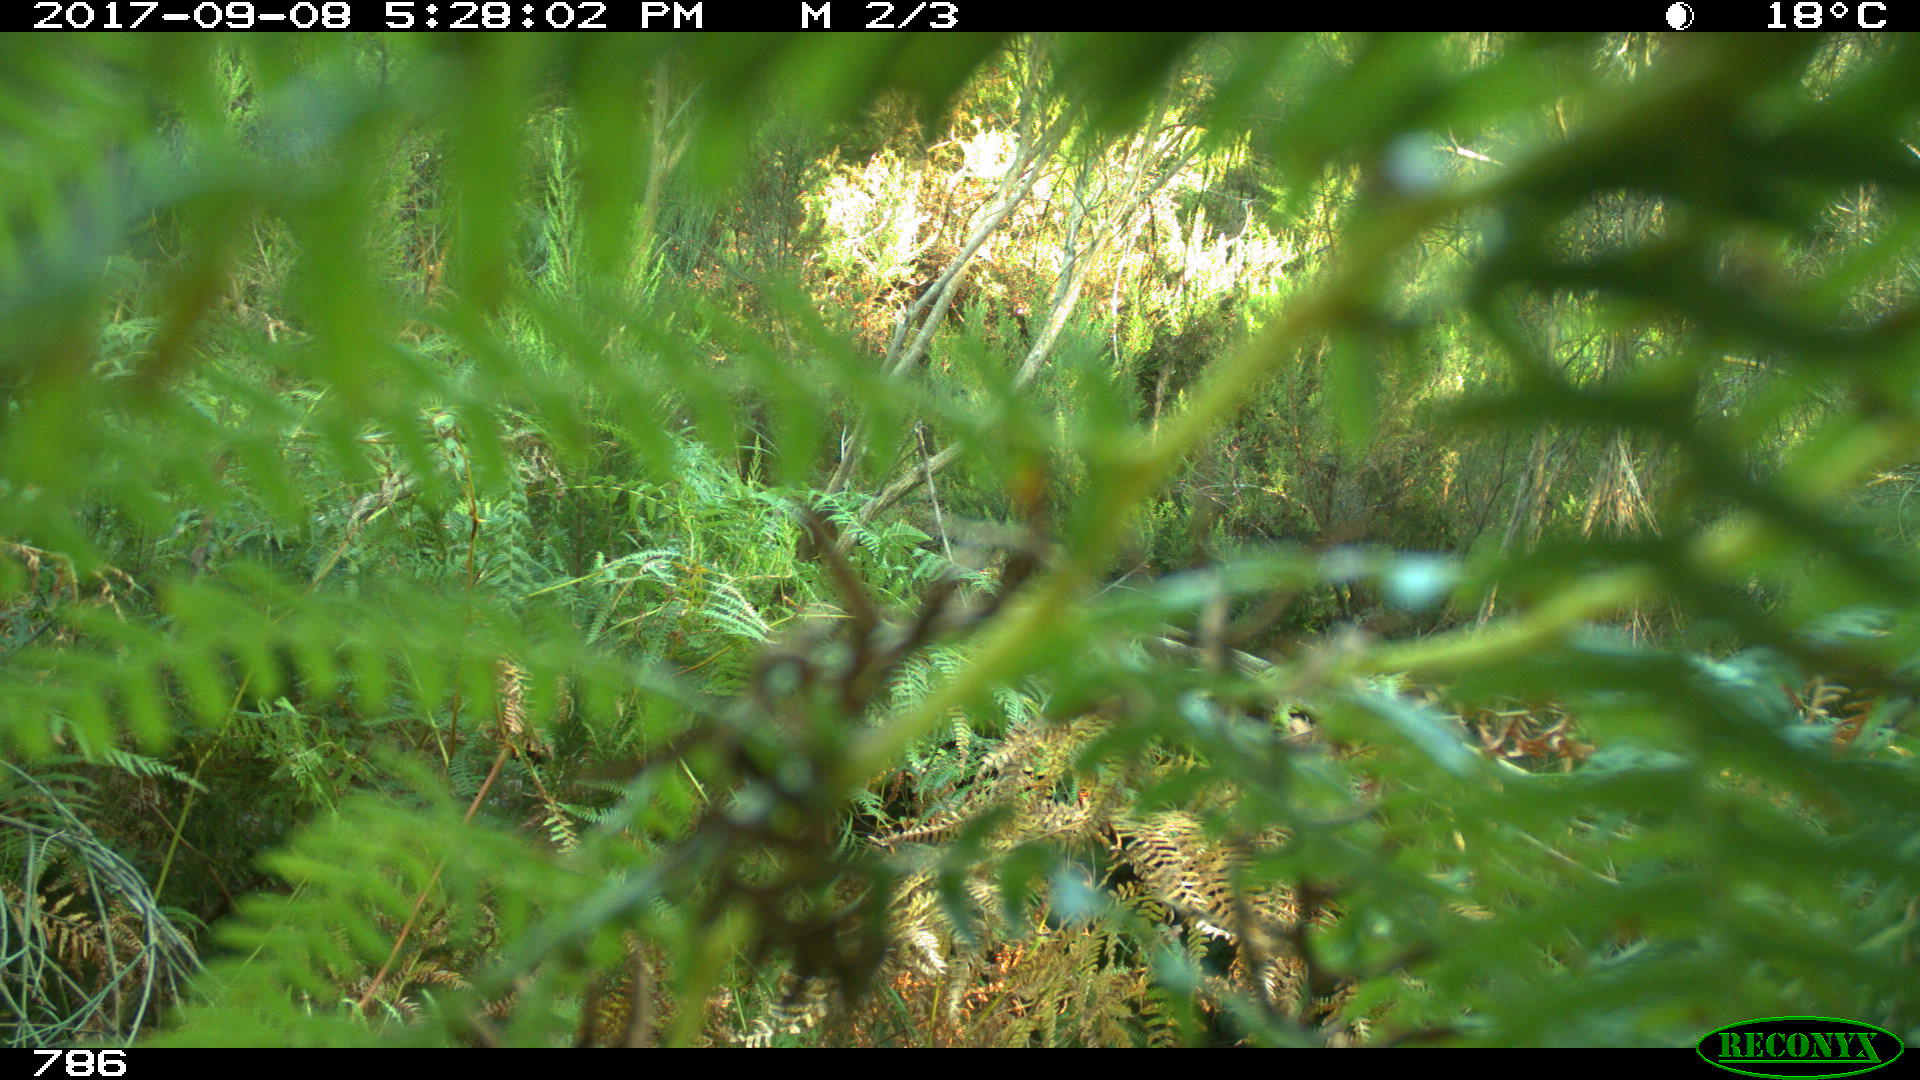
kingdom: Animalia
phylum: Chordata
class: Mammalia
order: Perissodactyla
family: Equidae
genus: Equus
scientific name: Equus caballus
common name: Horse
